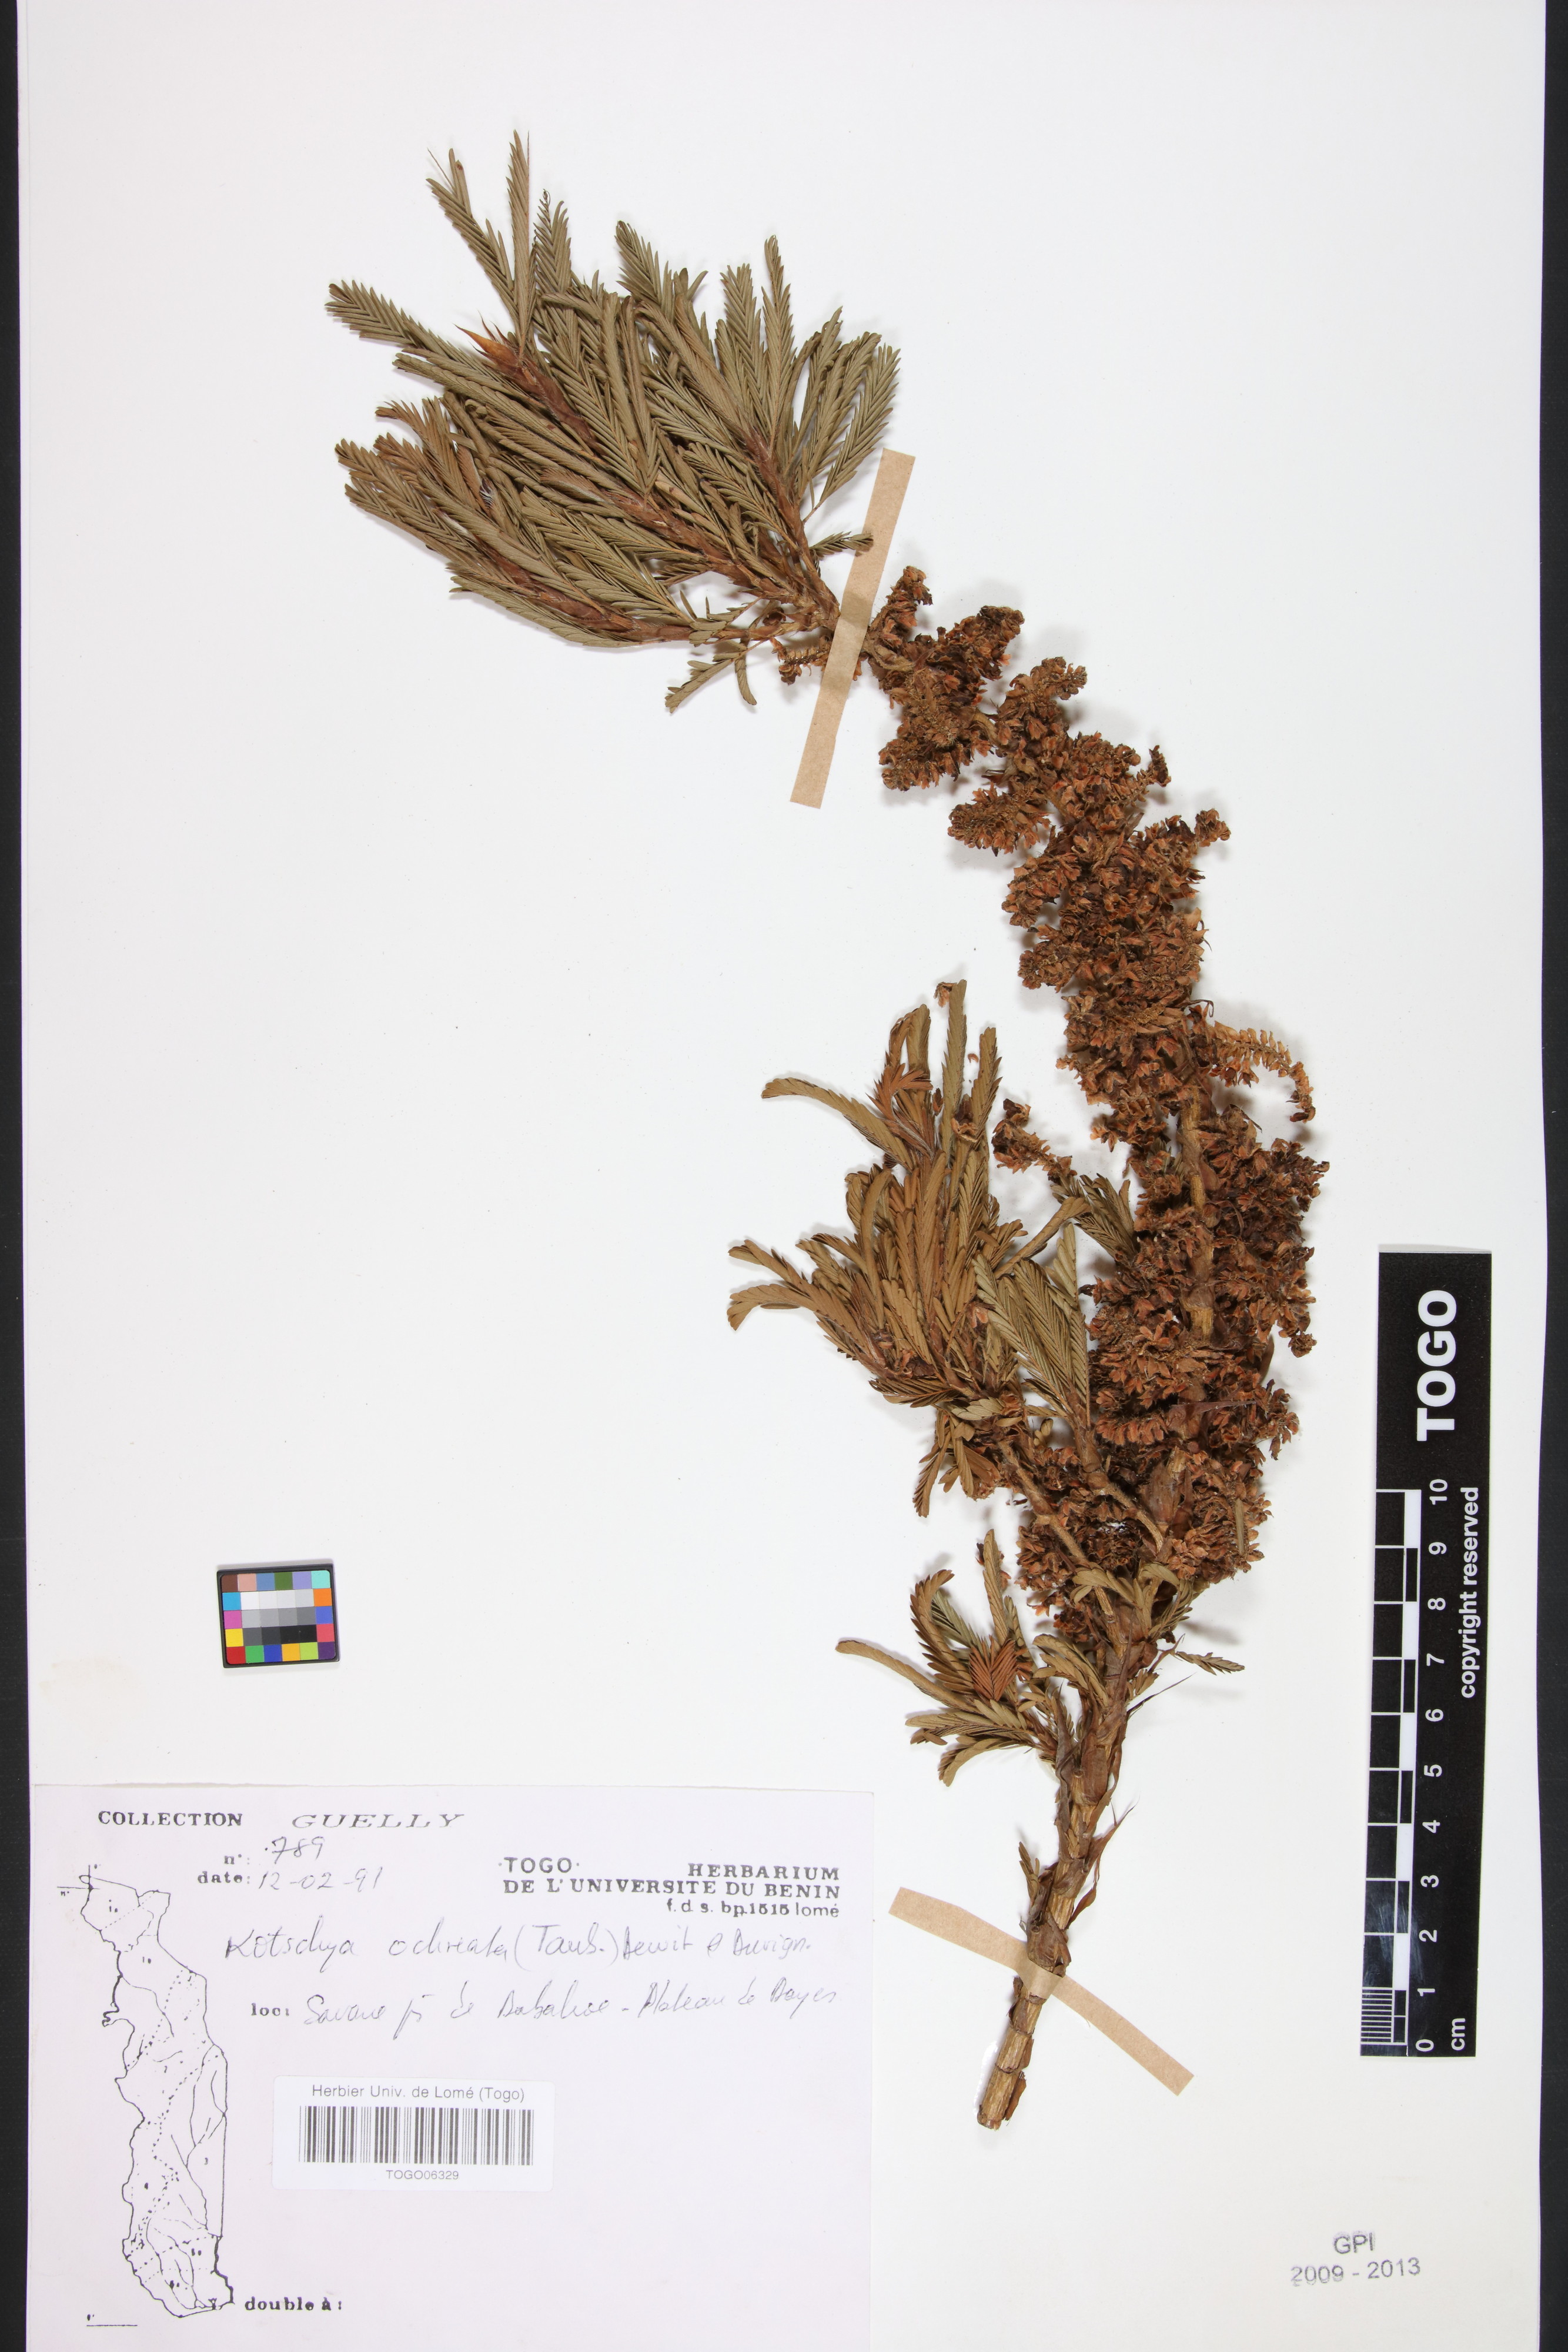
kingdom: Plantae
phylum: Tracheophyta
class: Magnoliopsida
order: Fabales
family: Fabaceae
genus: Kotschya
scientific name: Kotschya ochreata
